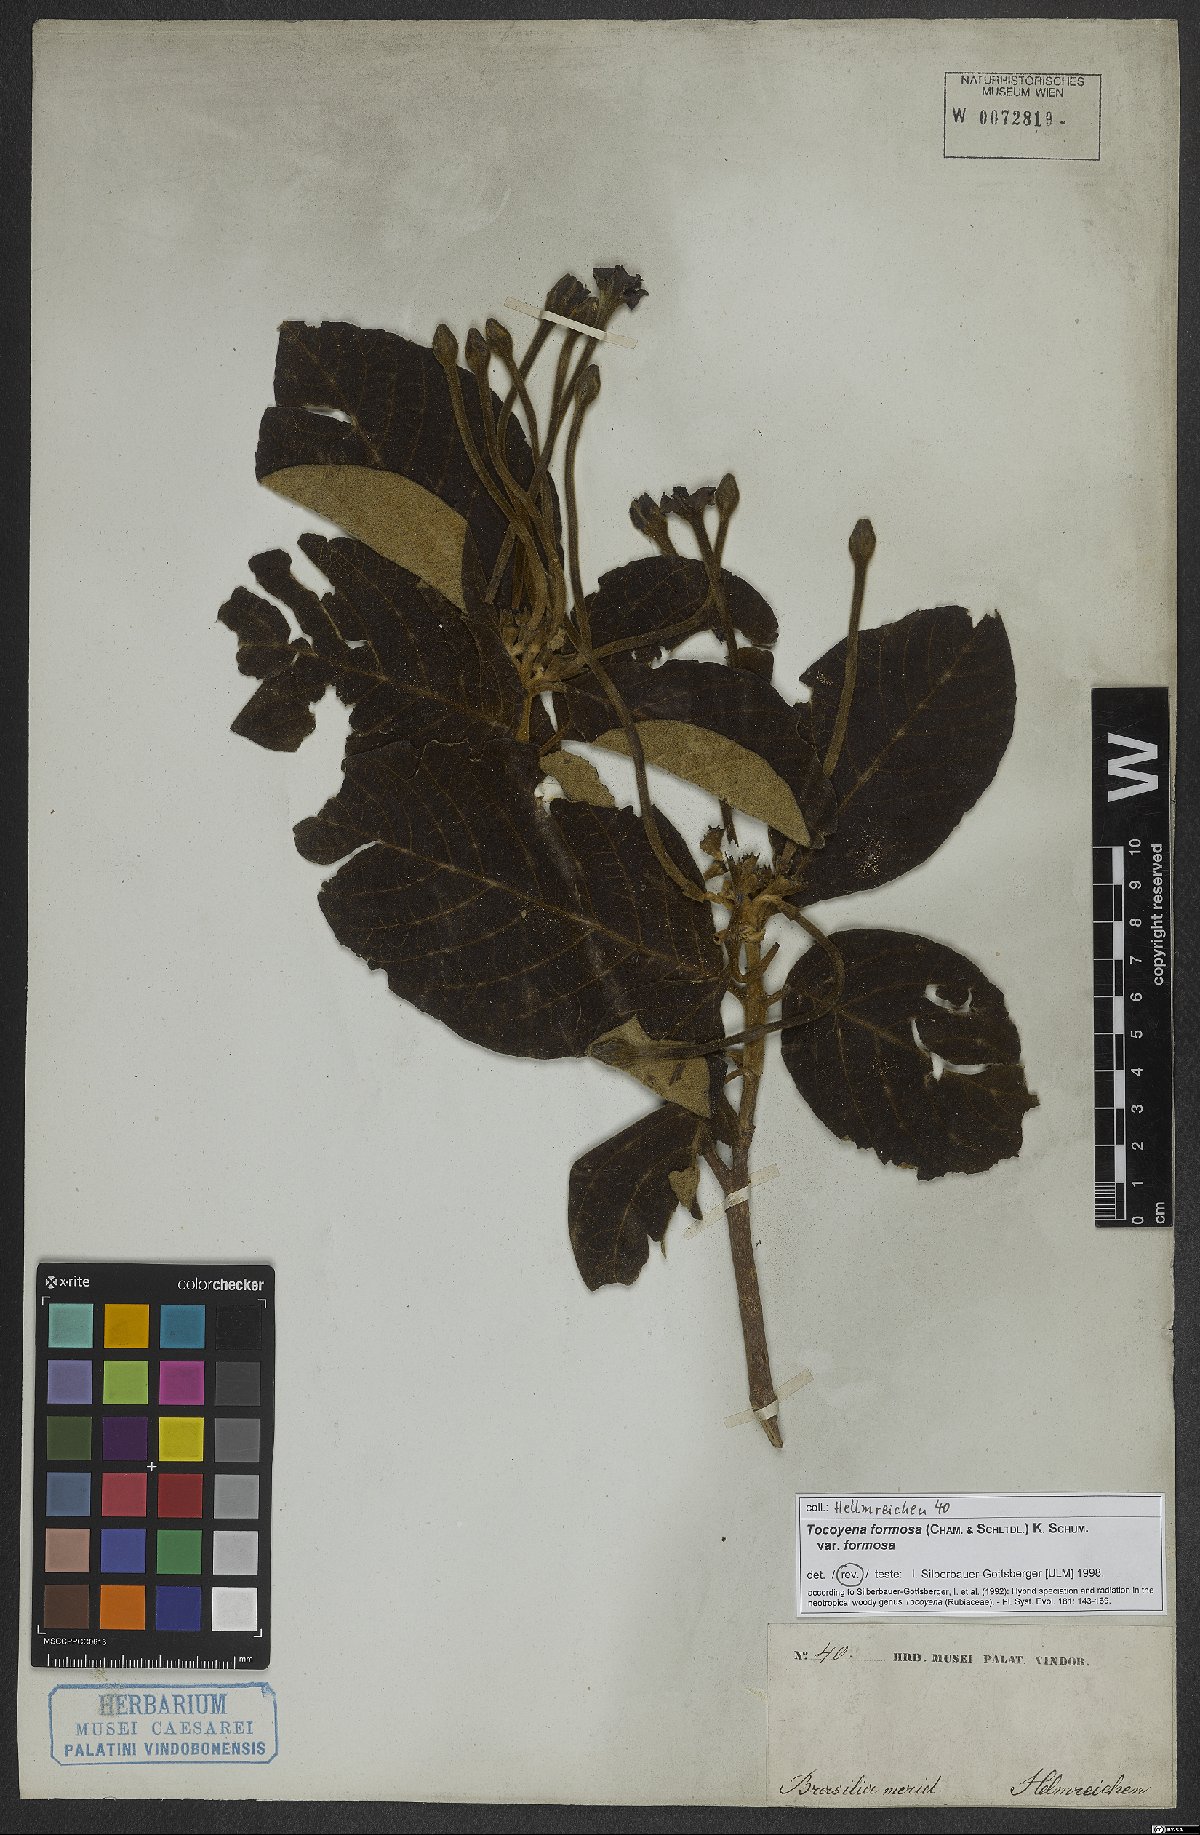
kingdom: Plantae
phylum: Tracheophyta
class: Magnoliopsida
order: Gentianales
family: Rubiaceae
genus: Tocoyena
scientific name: Tocoyena formosa
